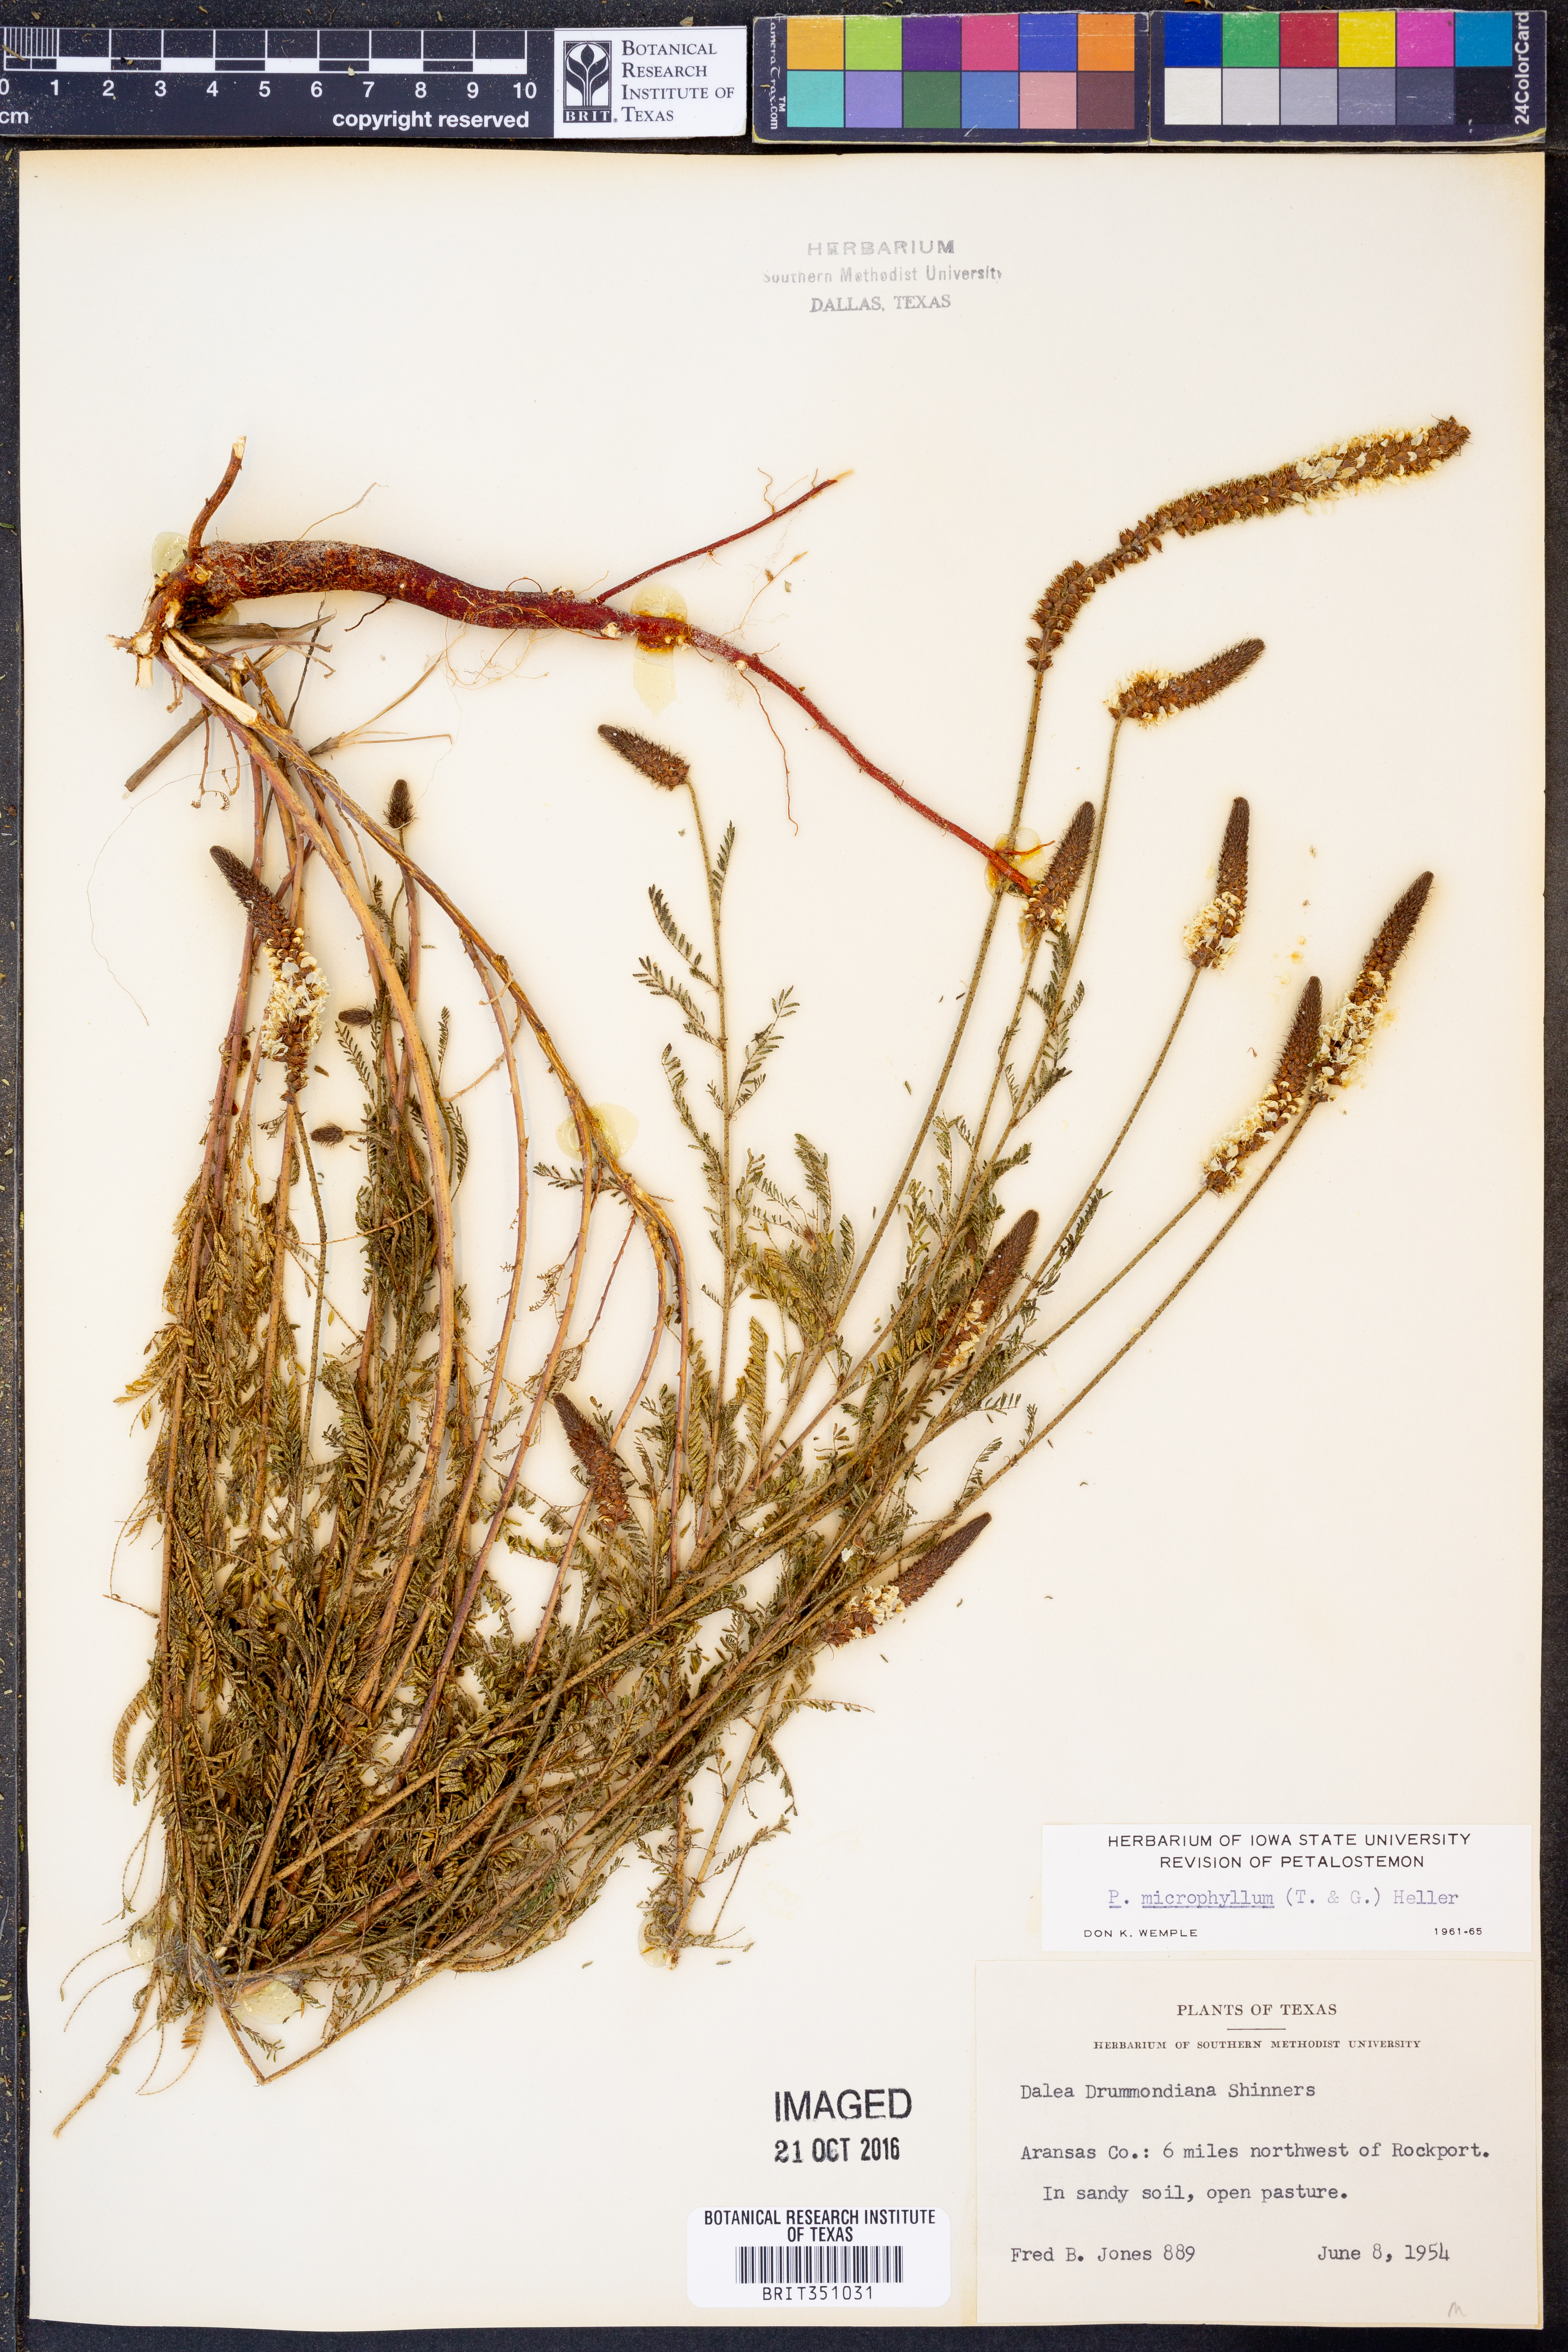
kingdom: Plantae
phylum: Tracheophyta
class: Magnoliopsida
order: Fabales
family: Fabaceae
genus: Dalea
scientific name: Dalea drummondiana
